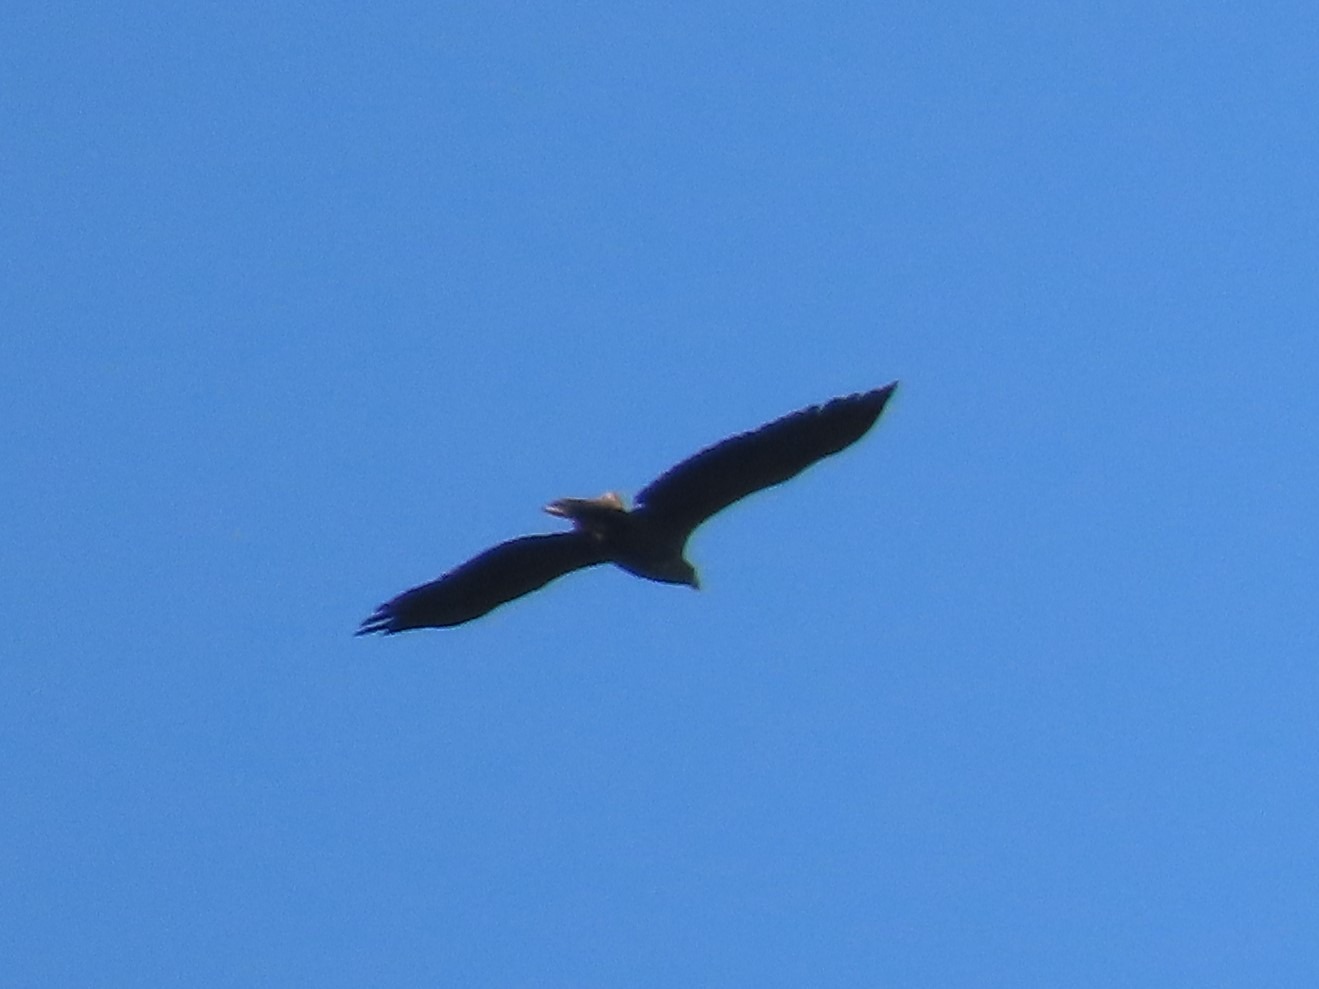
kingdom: Animalia
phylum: Chordata
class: Aves
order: Accipitriformes
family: Accipitridae
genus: Haliaeetus
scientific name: Haliaeetus albicilla
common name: Havørn
